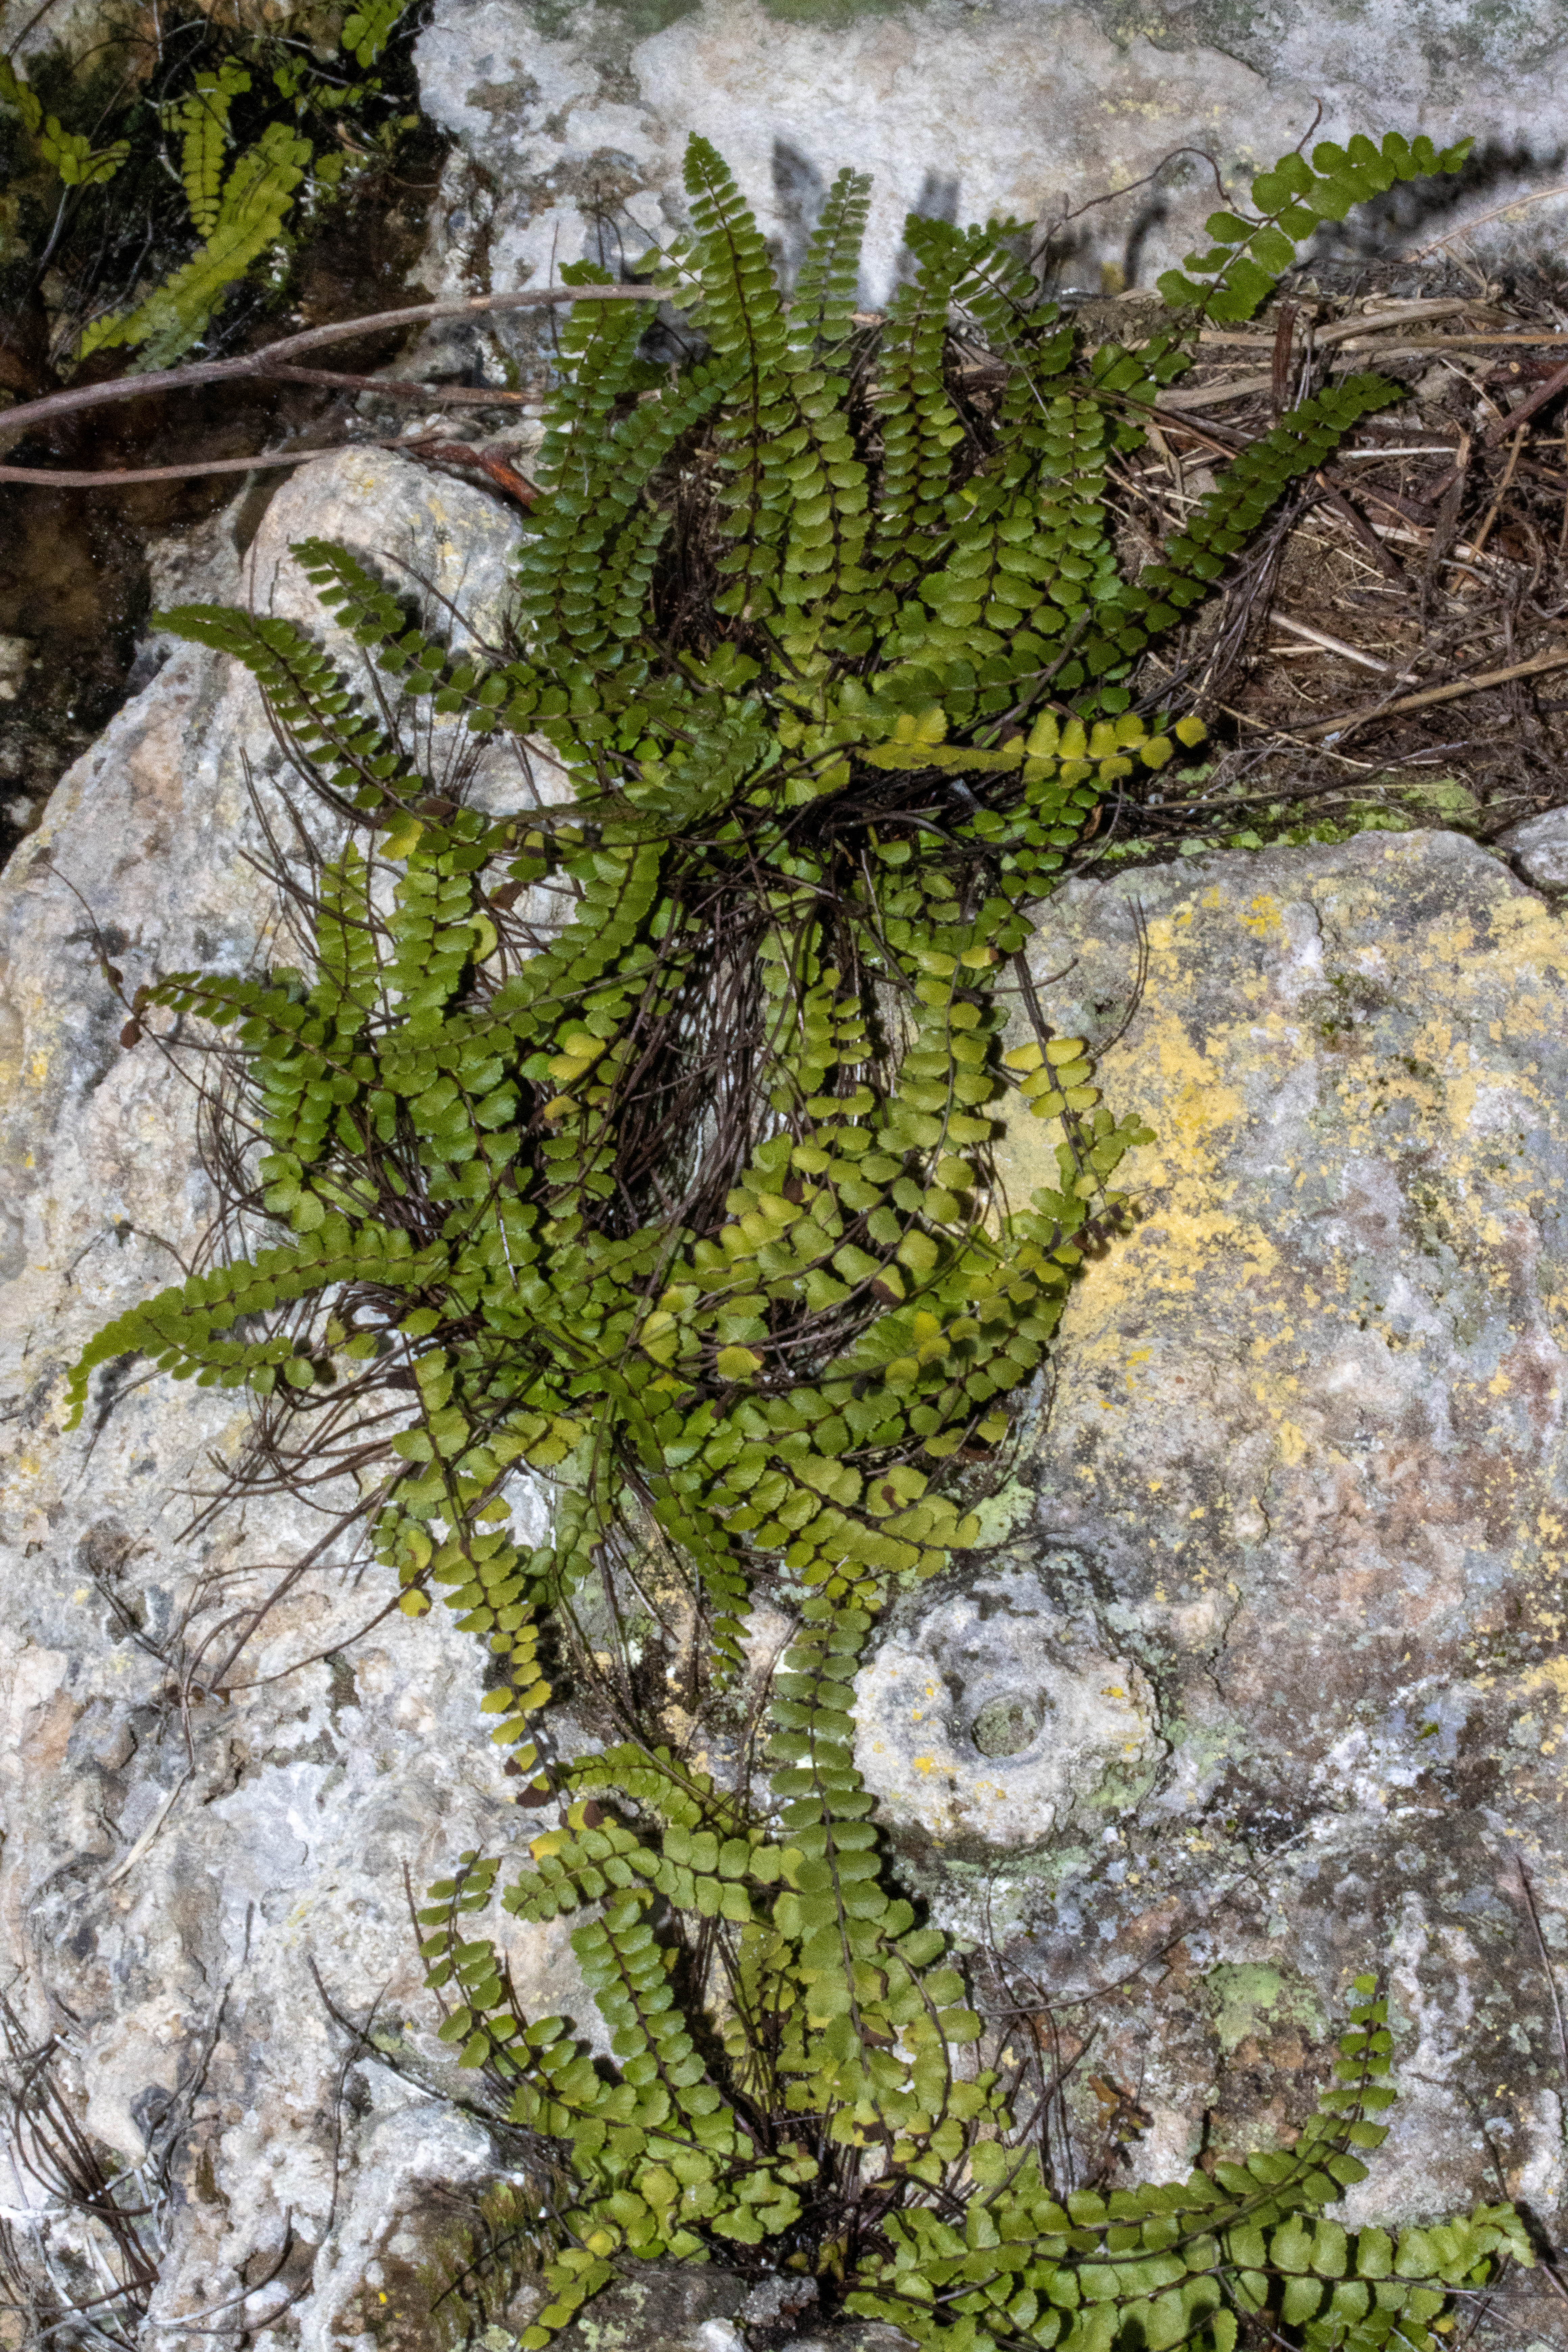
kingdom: Plantae
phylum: Tracheophyta
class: Polypodiopsida
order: Polypodiales
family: Aspleniaceae
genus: Asplenium
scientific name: Asplenium trichomanes
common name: Rundfinnet radeløv
